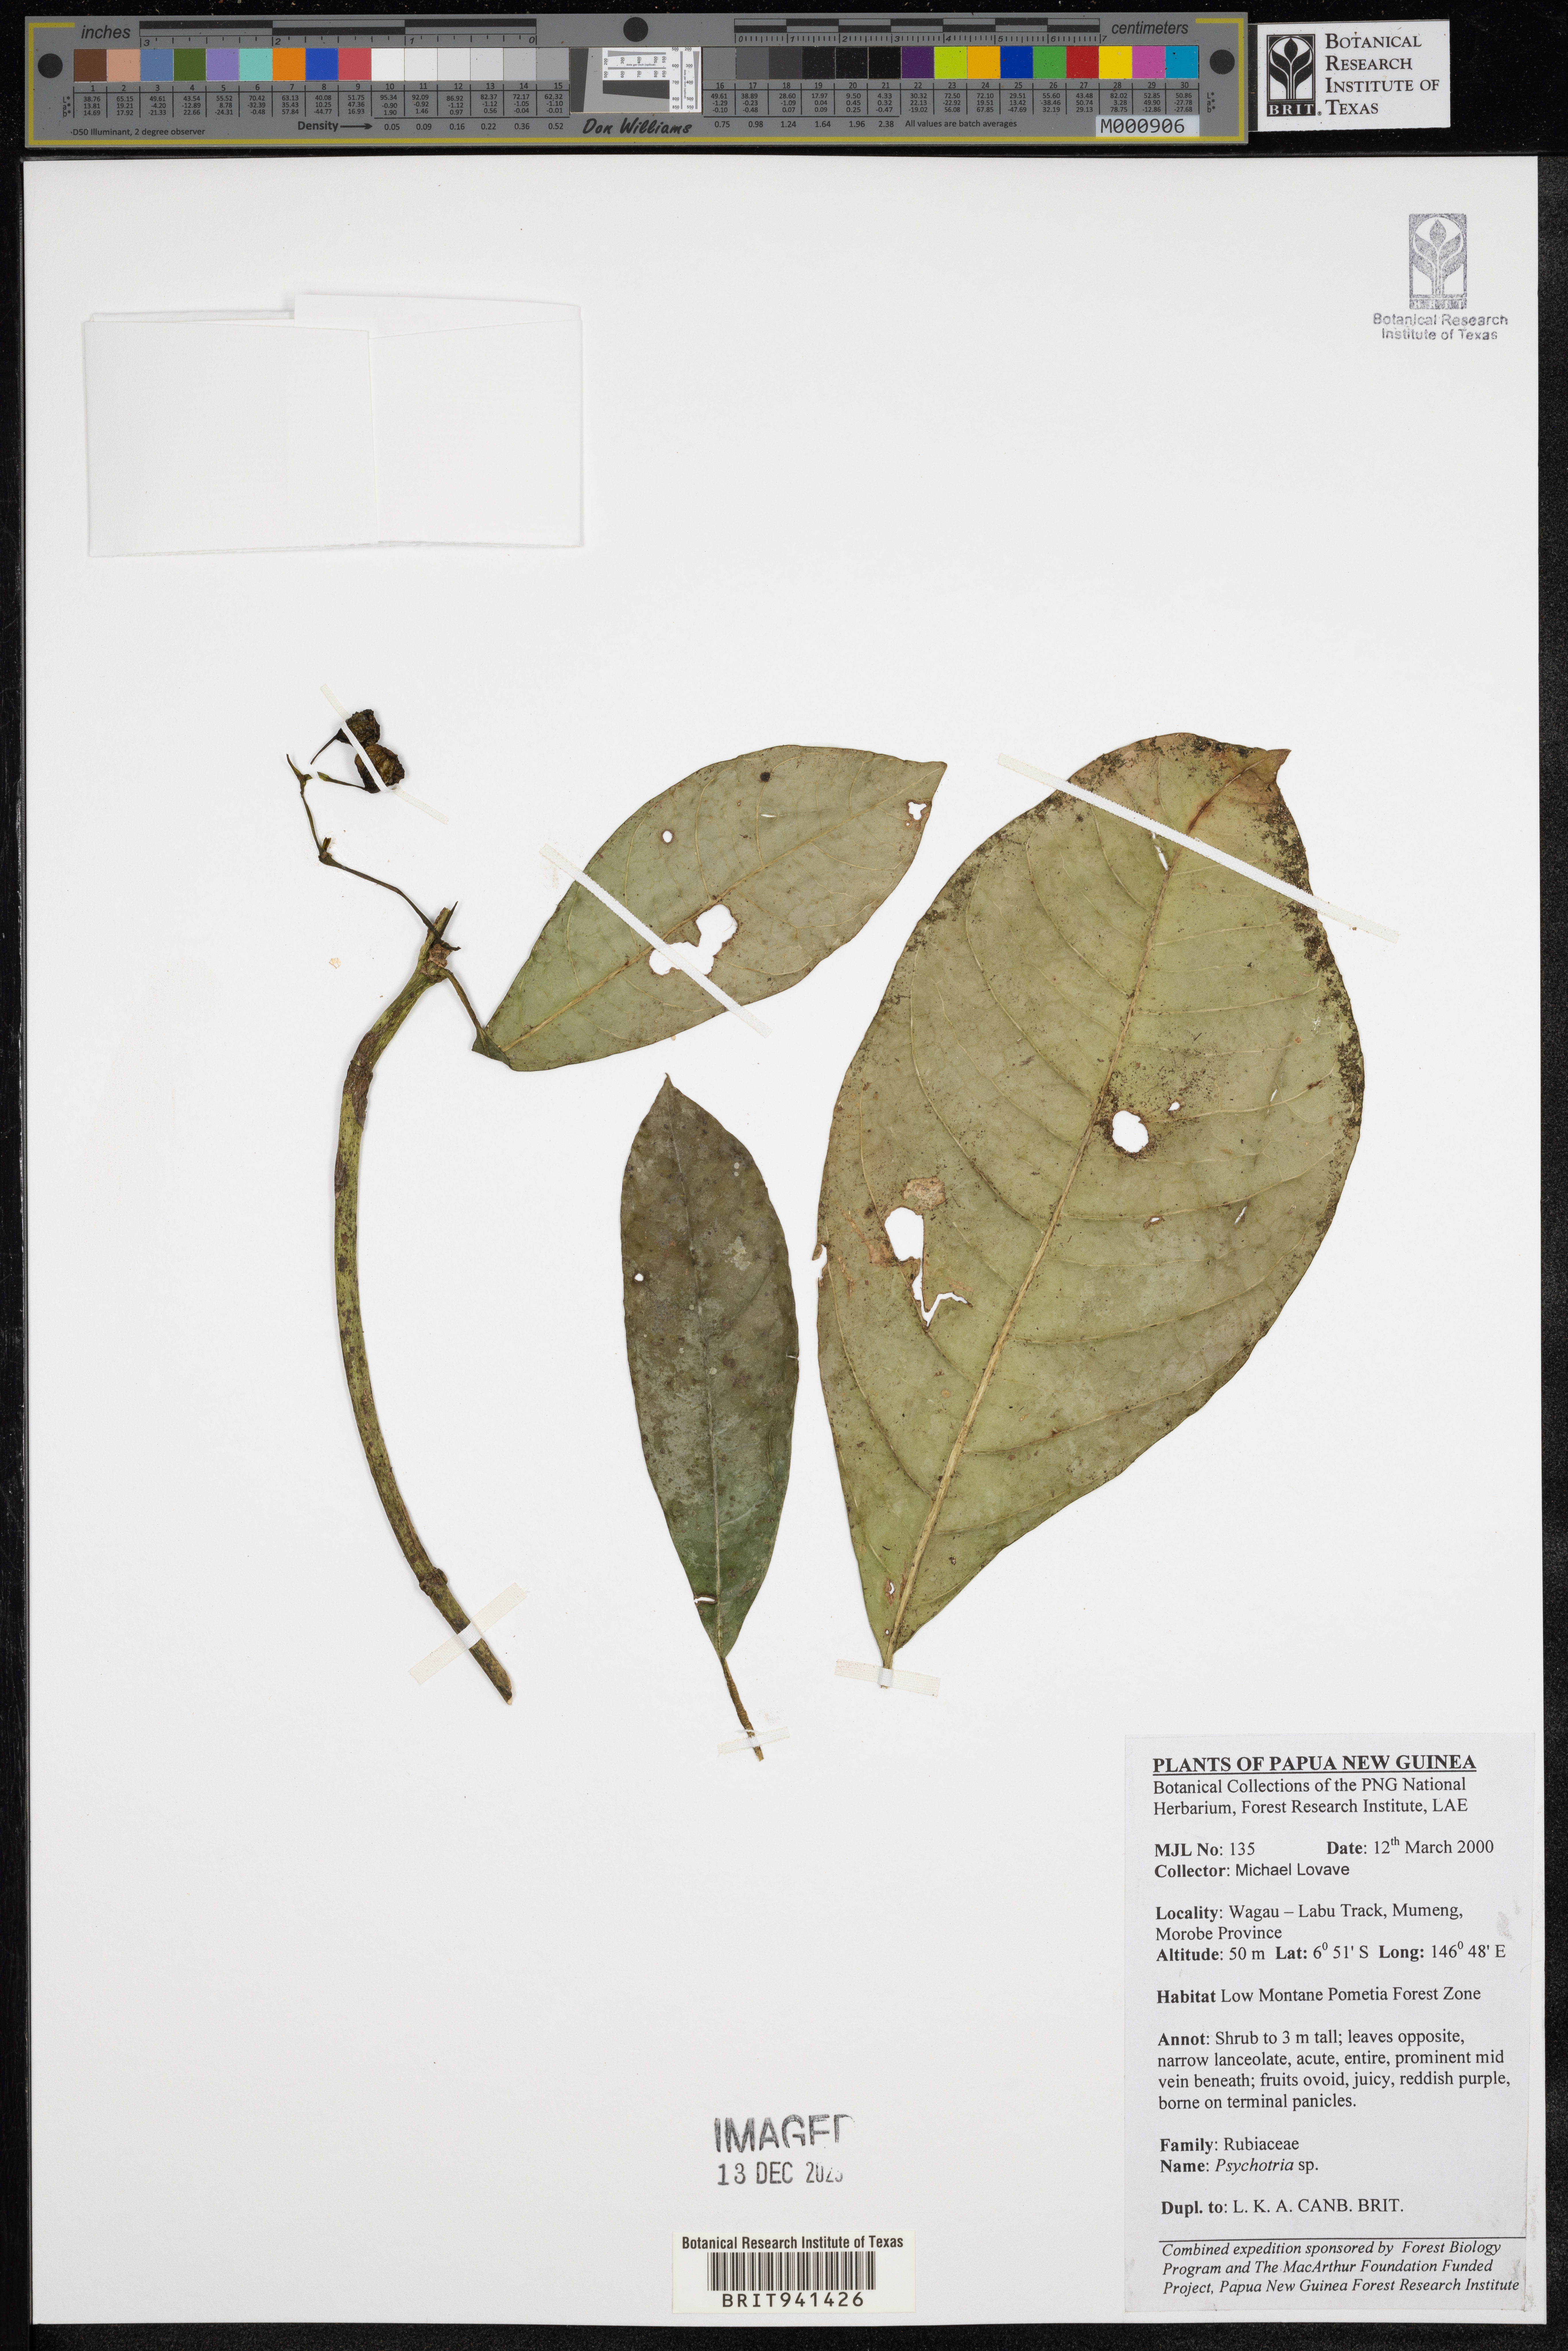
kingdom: Plantae
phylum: Tracheophyta
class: Magnoliopsida
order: Gentianales
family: Rubiaceae
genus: Psychotria
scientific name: Psychotria
